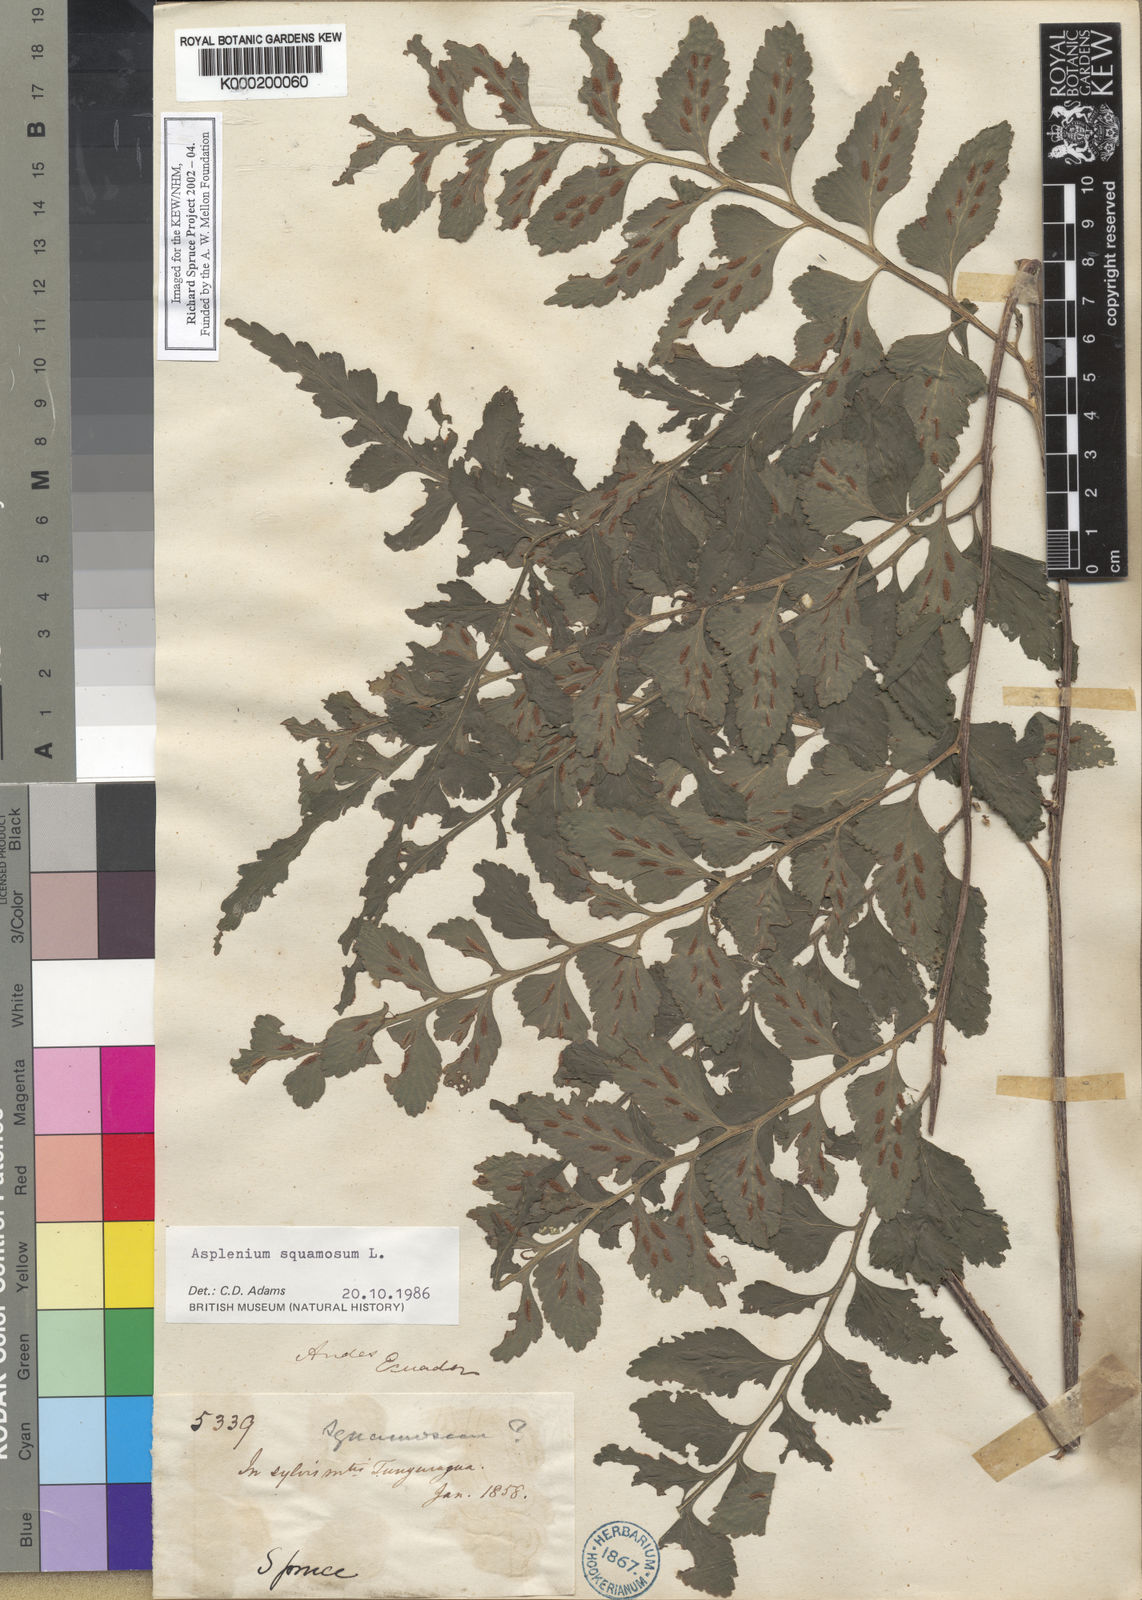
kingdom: Plantae
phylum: Tracheophyta
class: Polypodiopsida
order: Polypodiales
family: Aspleniaceae
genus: Asplenium
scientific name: Asplenium squamosum
